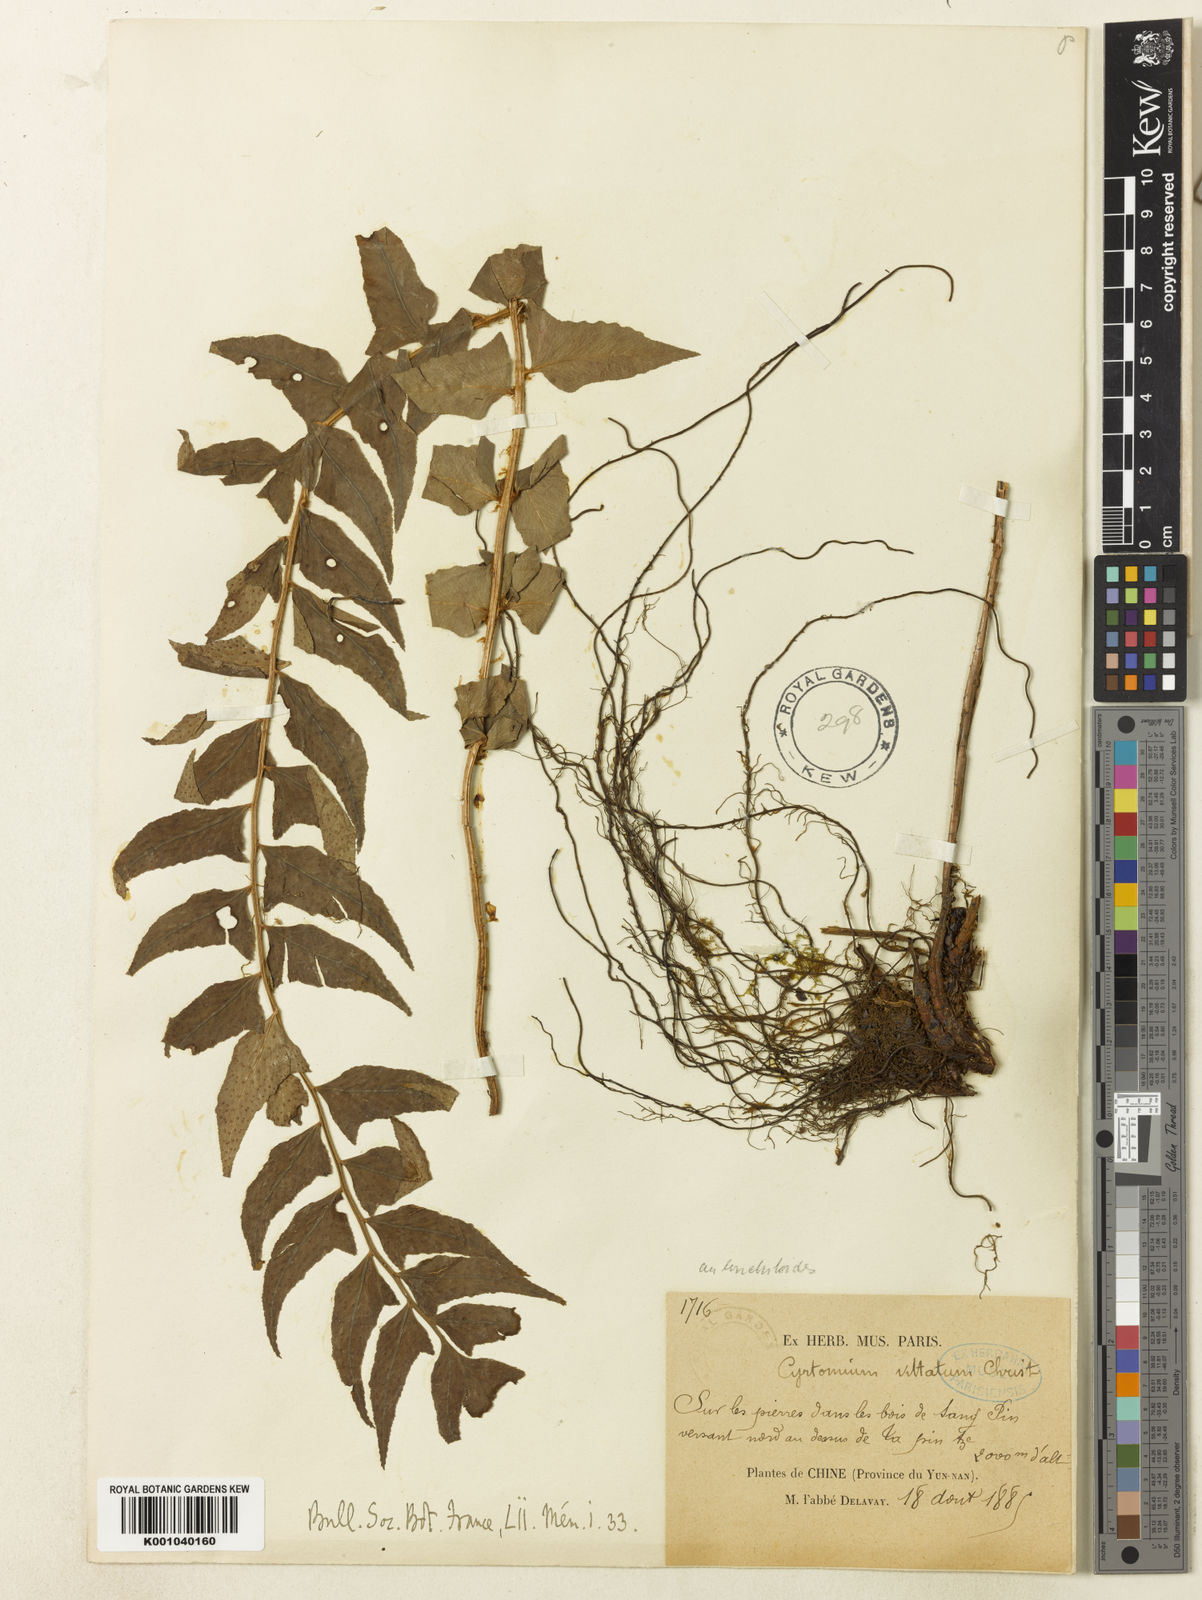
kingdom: Plantae
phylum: Tracheophyta
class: Polypodiopsida
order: Polypodiales
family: Dryopteridaceae
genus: Cyrtomium
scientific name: Cyrtomium lonchitoides
